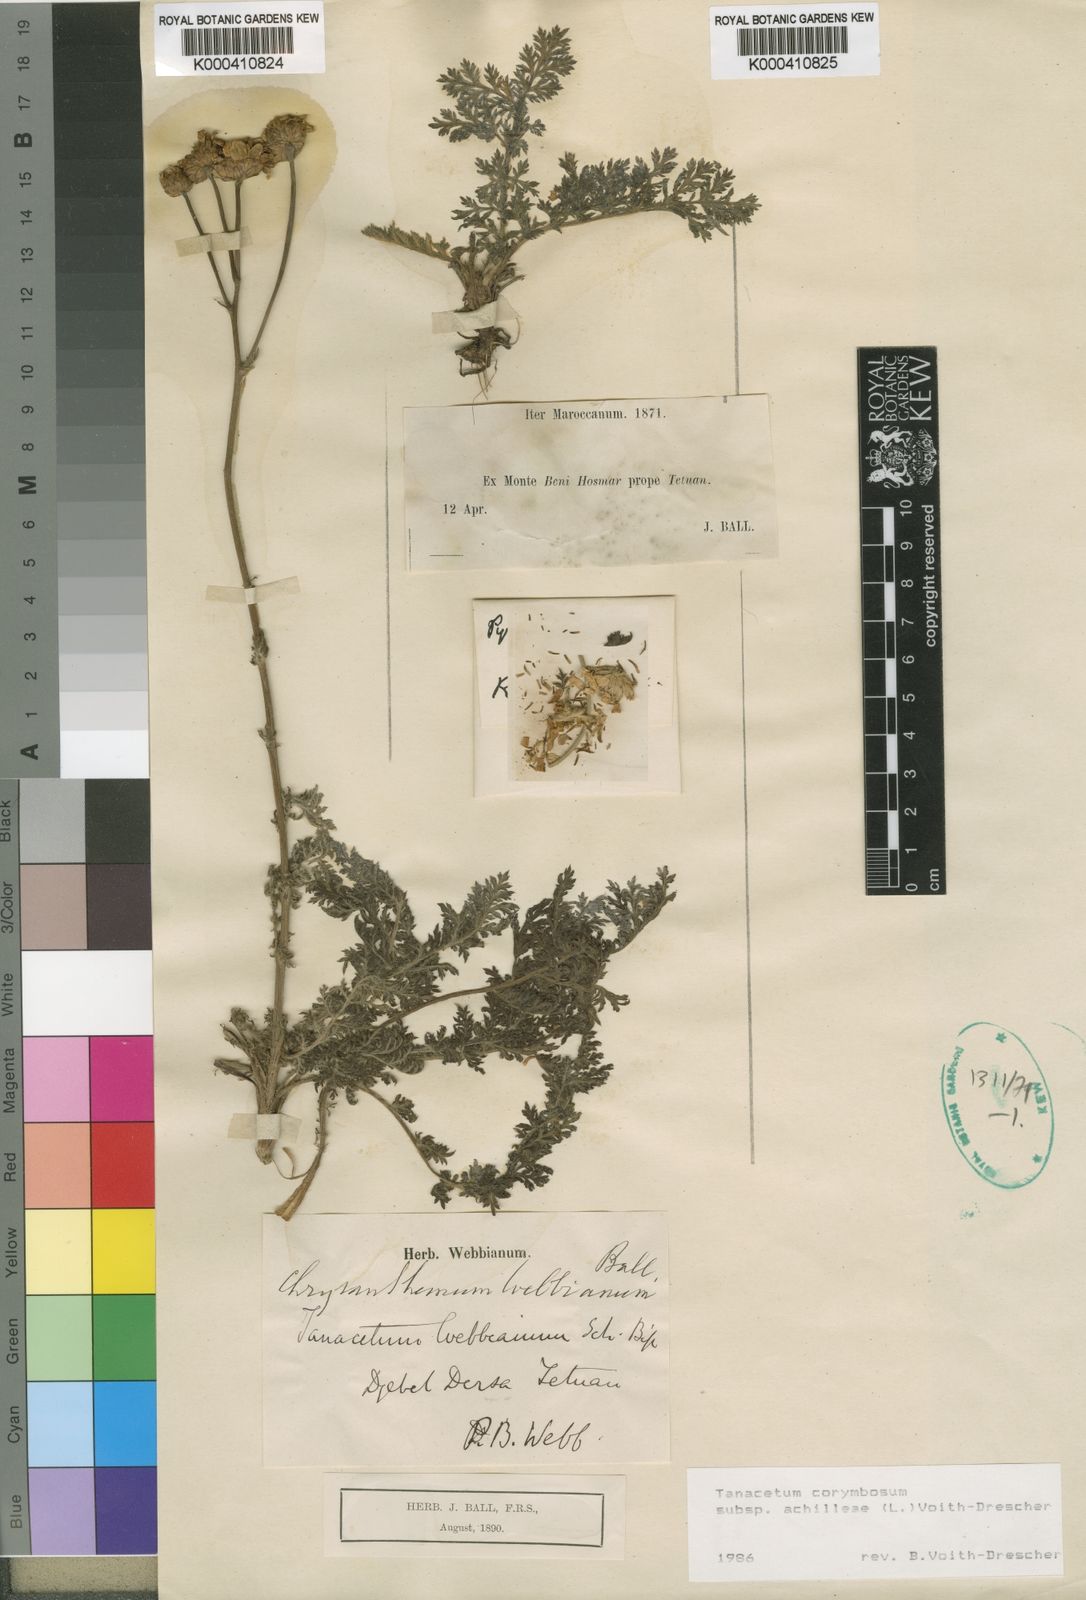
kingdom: Plantae
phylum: Tracheophyta
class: Magnoliopsida
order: Asterales
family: Asteraceae
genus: Tanacetum
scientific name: Tanacetum corymbosum
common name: Scentless feverfew
